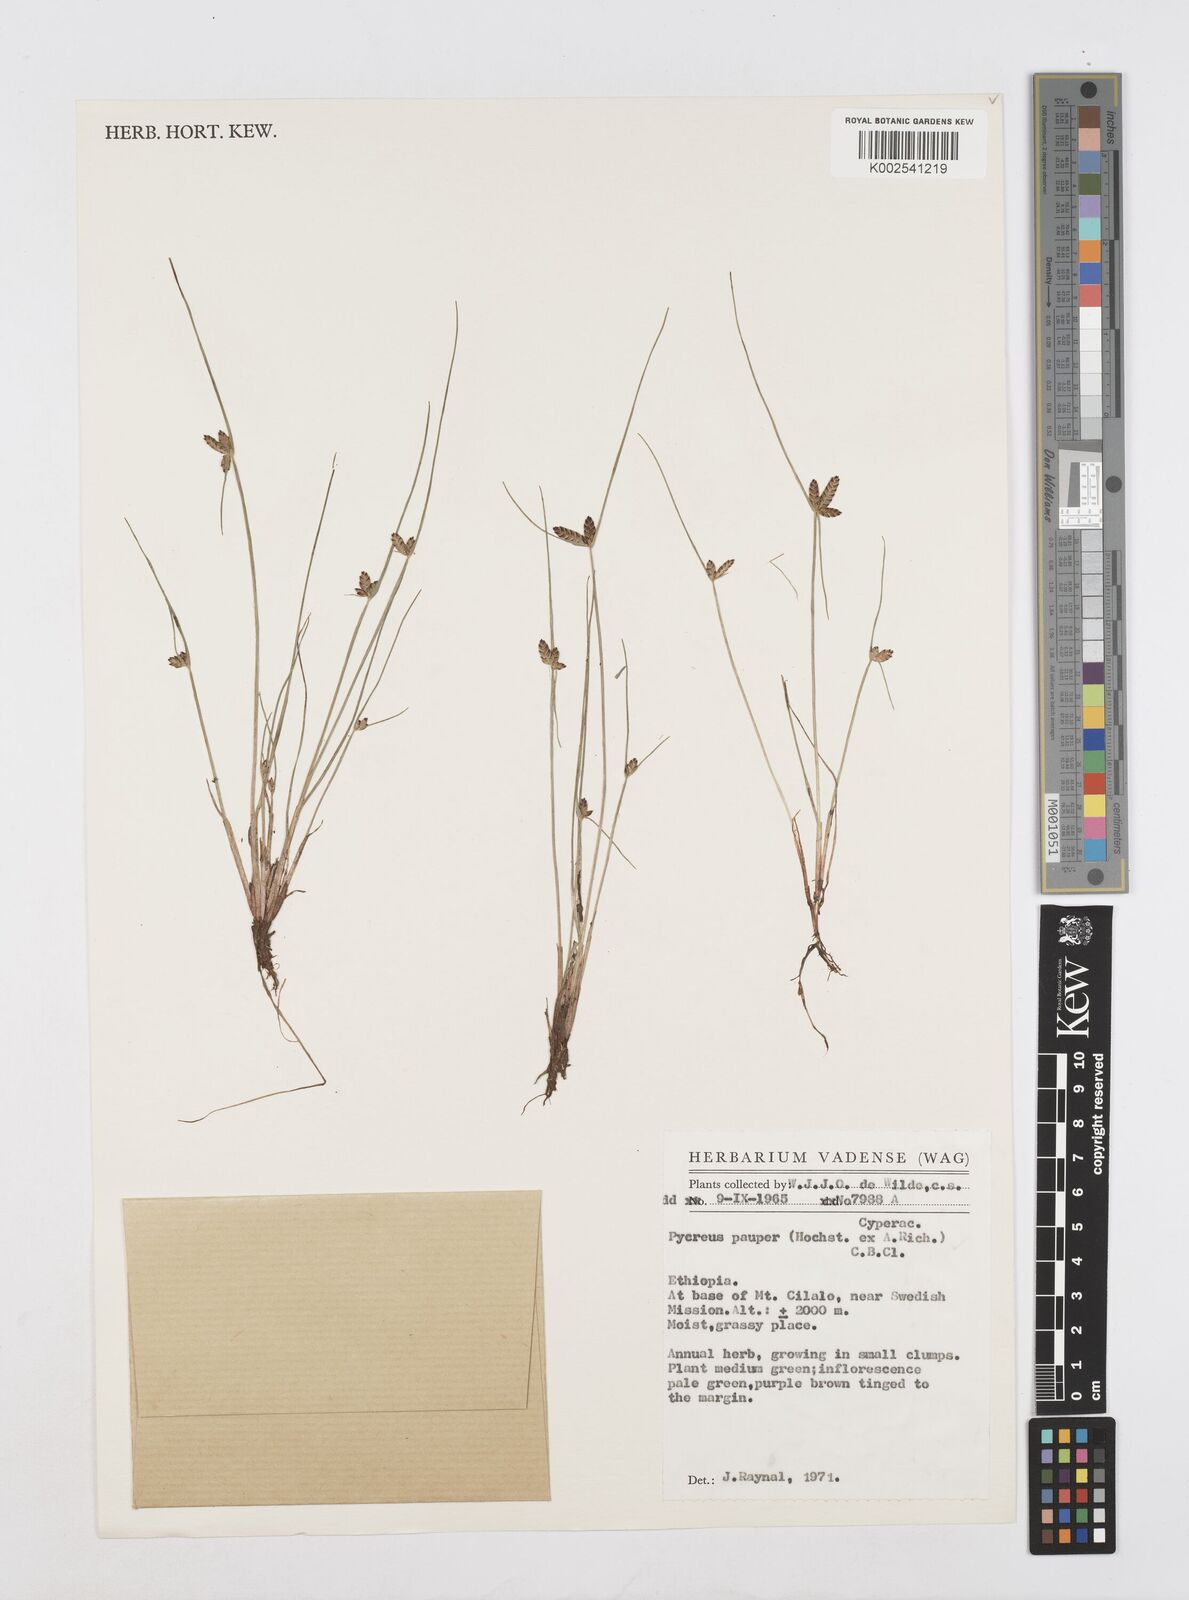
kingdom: Plantae
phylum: Tracheophyta
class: Liliopsida
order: Poales
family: Cyperaceae
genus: Cyperus
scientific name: Cyperus pauper
